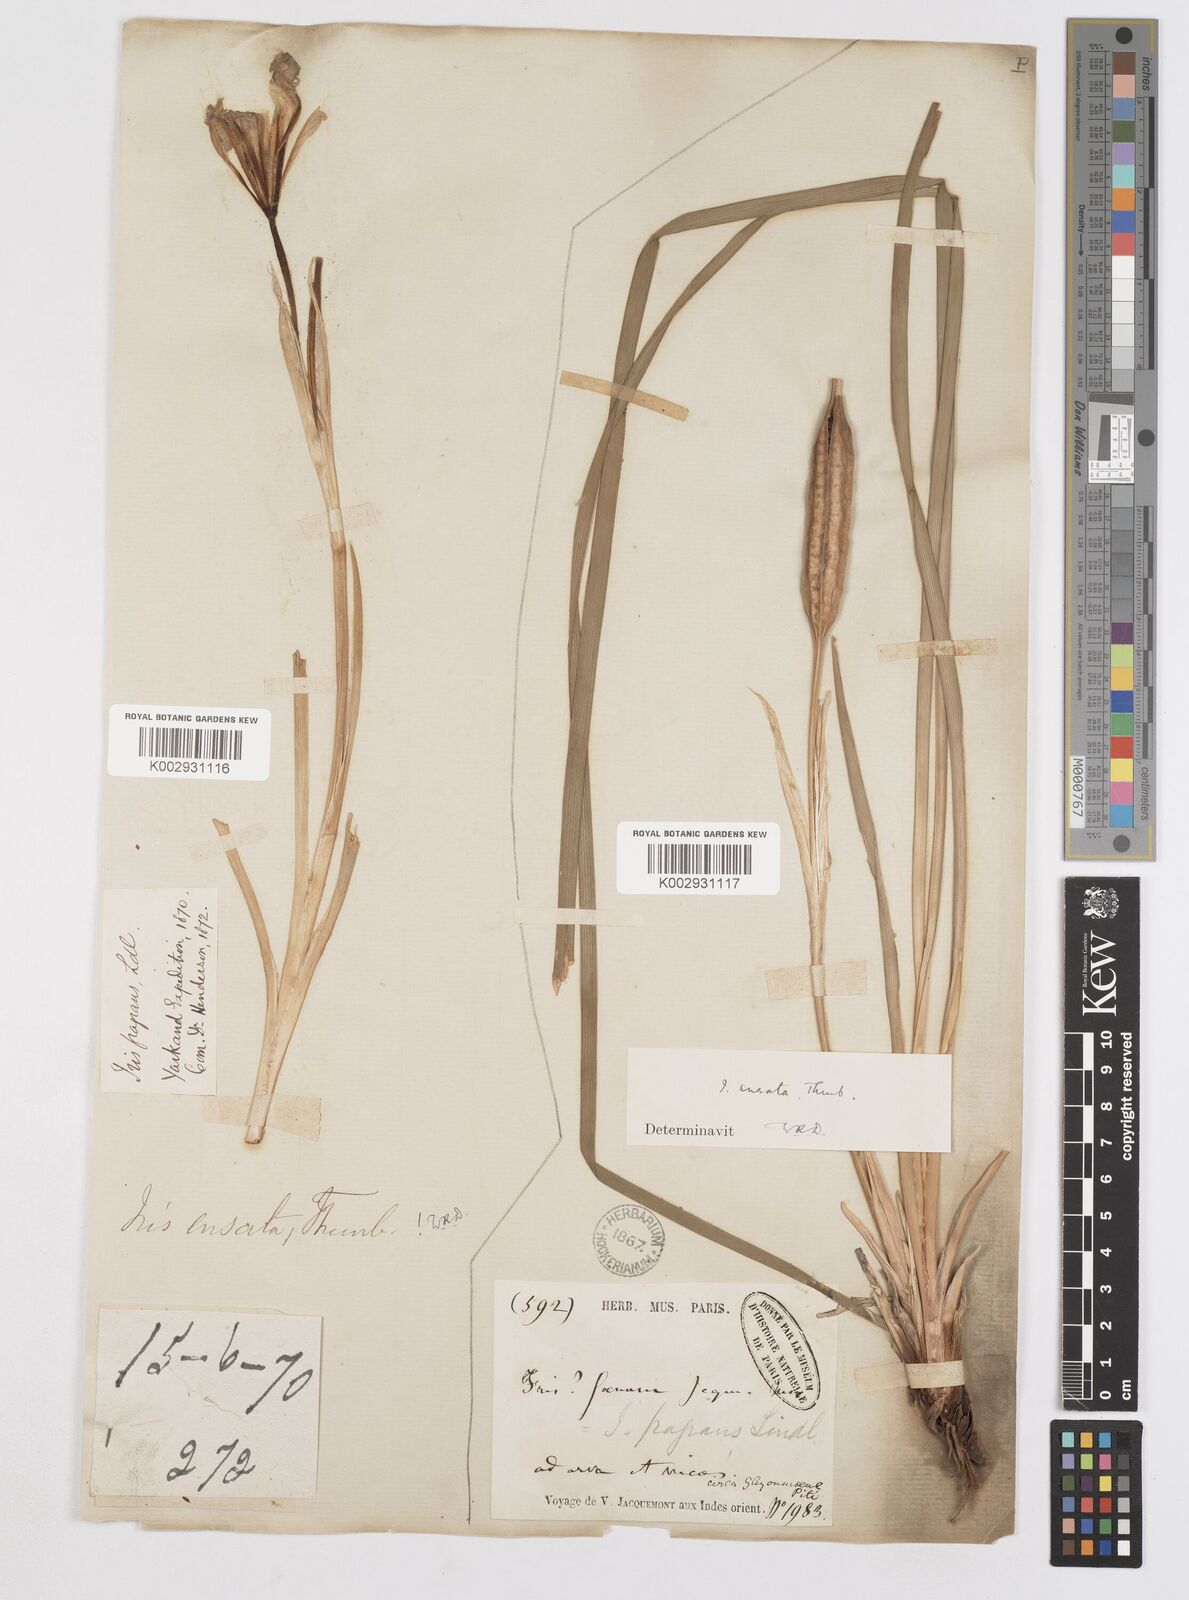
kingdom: Plantae
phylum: Tracheophyta
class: Liliopsida
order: Asparagales
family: Iridaceae
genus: Iris
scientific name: Iris ensata
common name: Beaked iris
